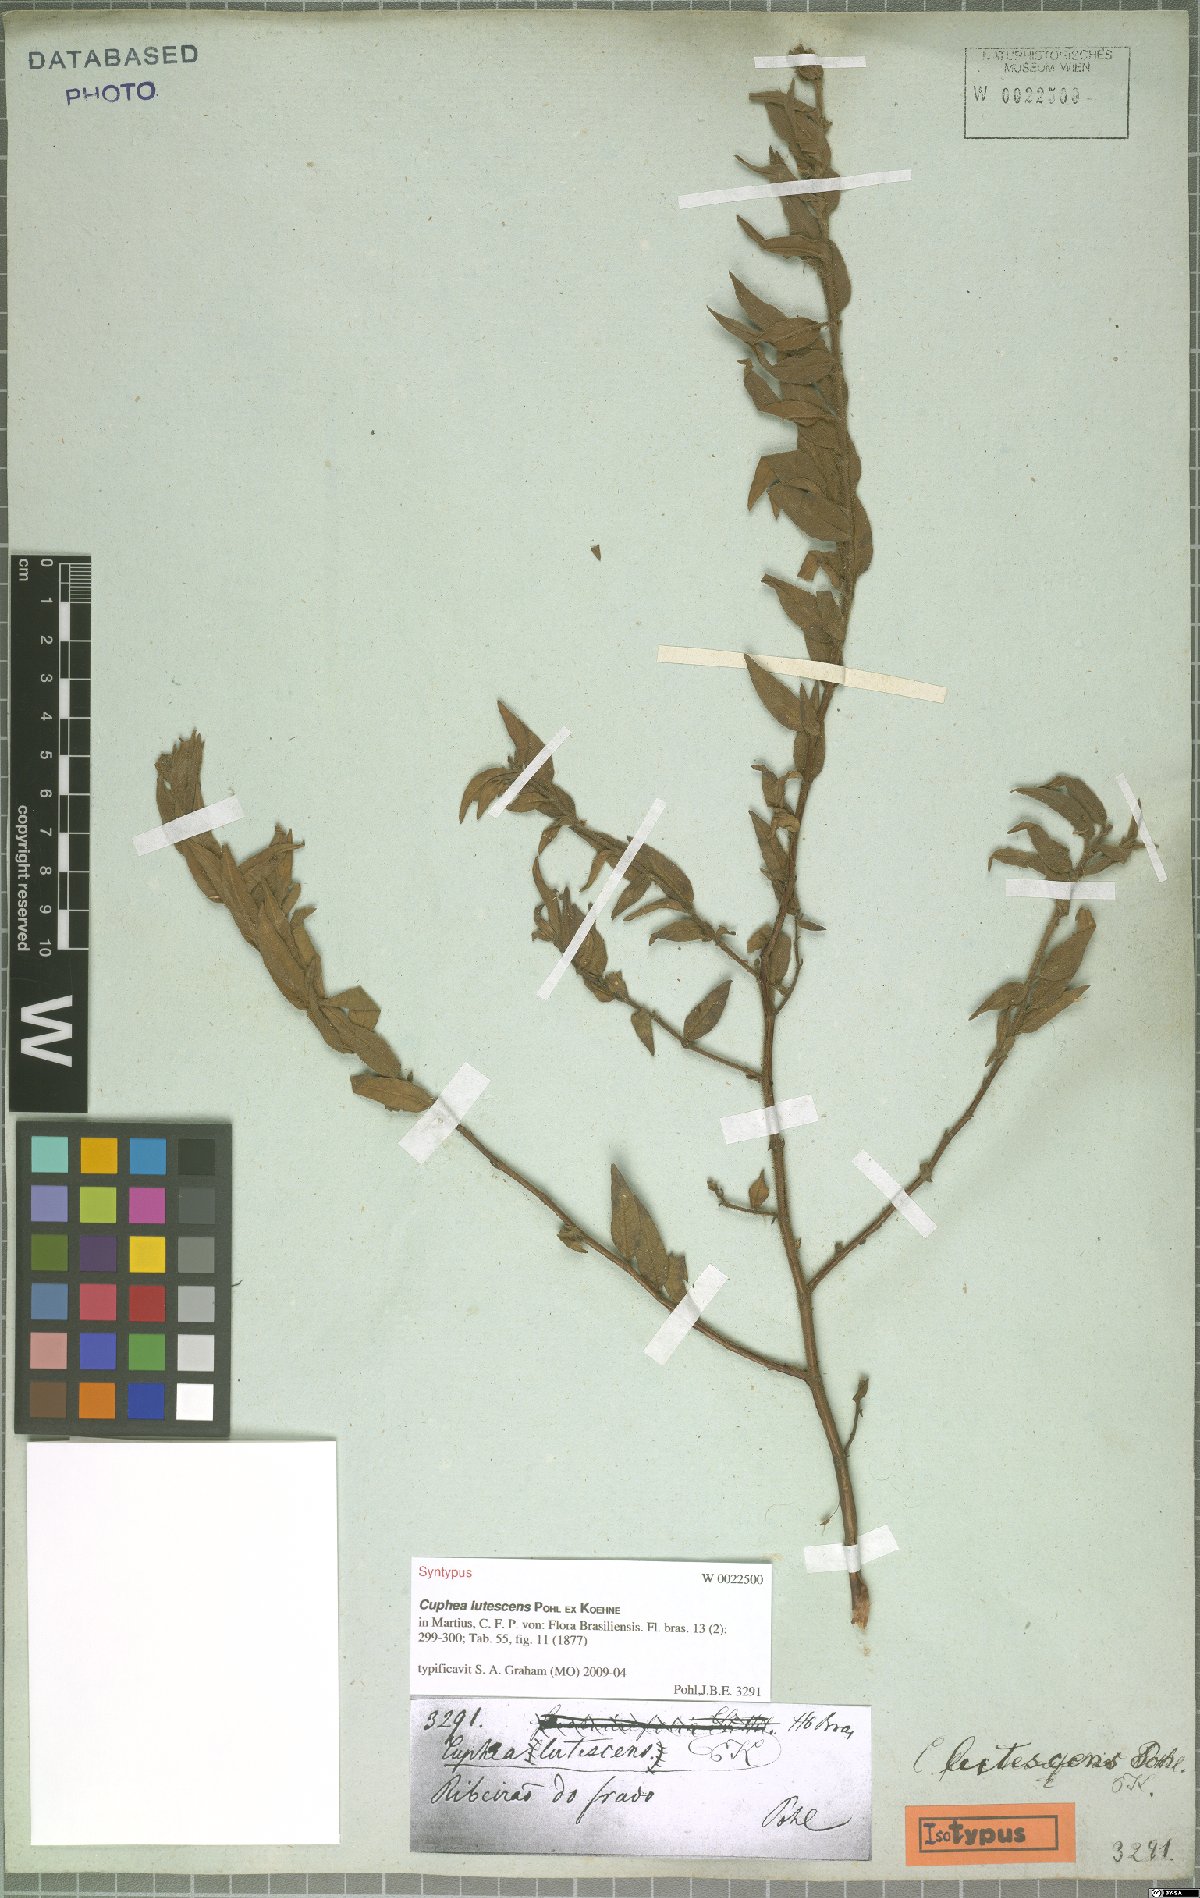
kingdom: Plantae
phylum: Tracheophyta
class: Magnoliopsida
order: Myrtales
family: Lythraceae
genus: Cuphea
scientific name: Cuphea lutescens
